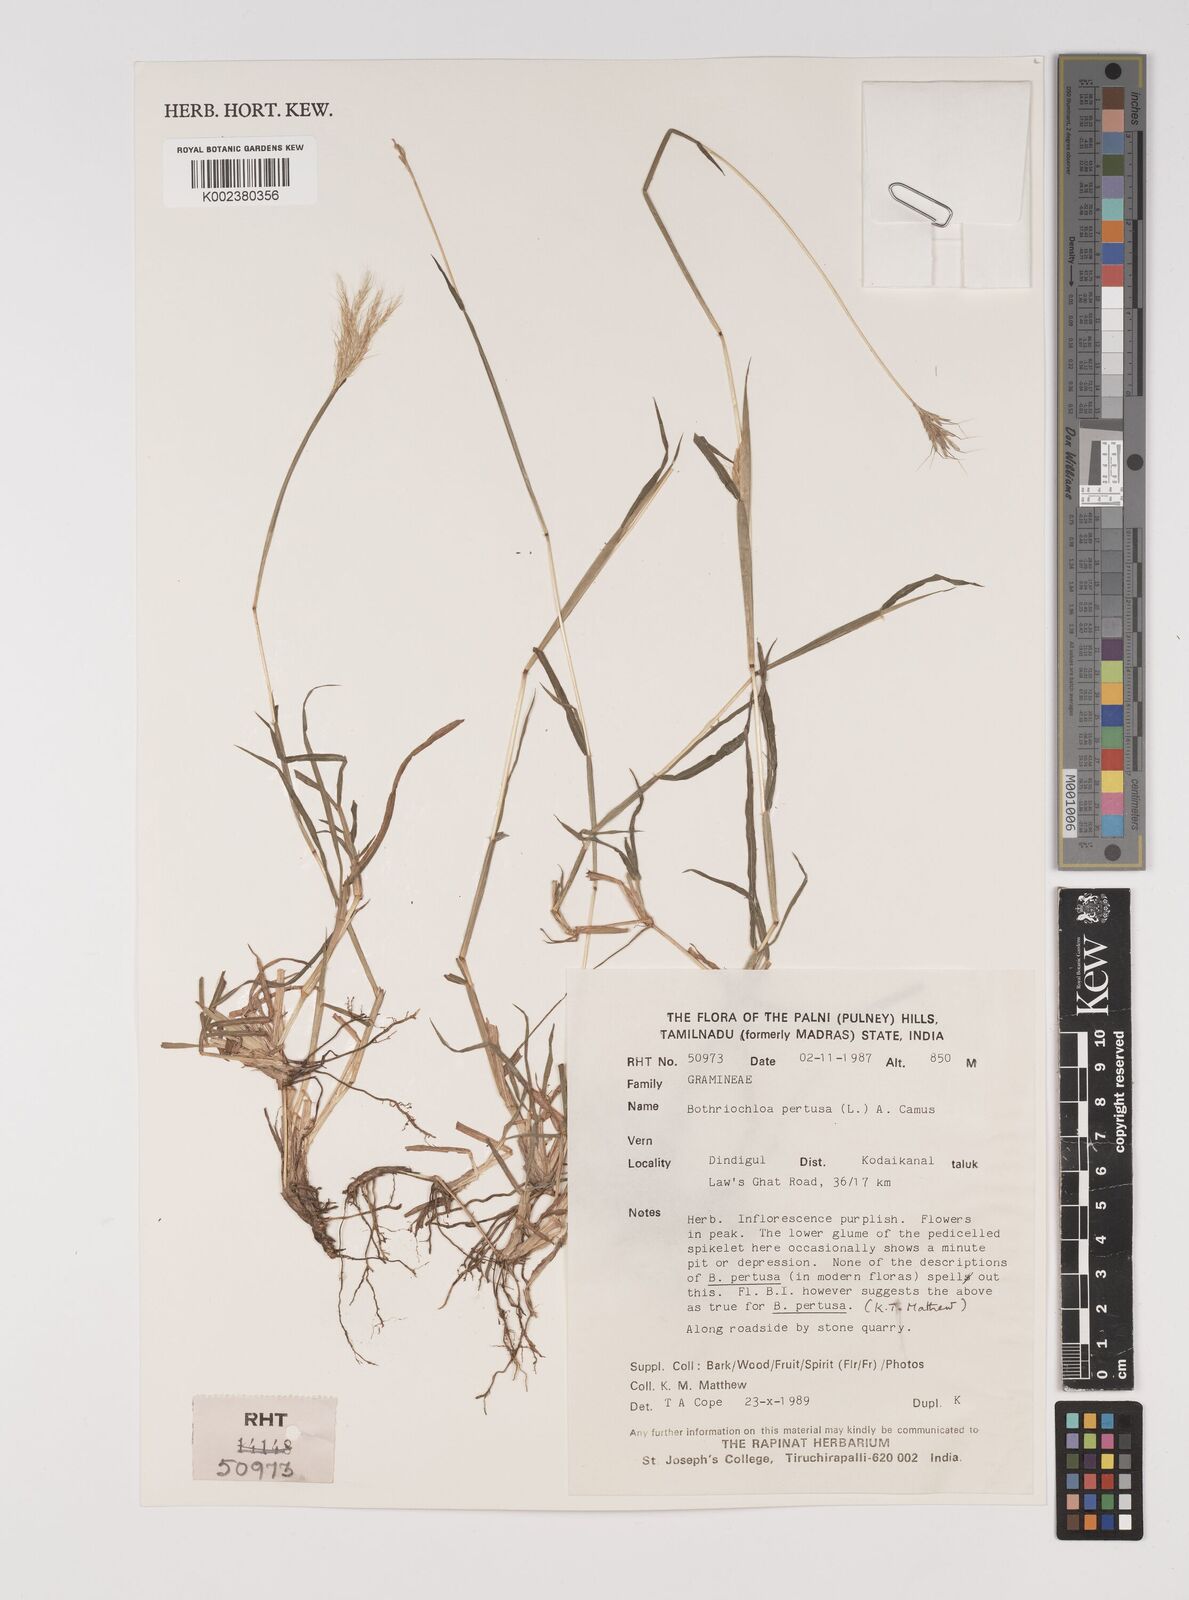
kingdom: Plantae
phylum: Tracheophyta
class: Liliopsida
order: Poales
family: Poaceae
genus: Bothriochloa
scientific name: Bothriochloa pertusa
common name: Pitted beardgrass
